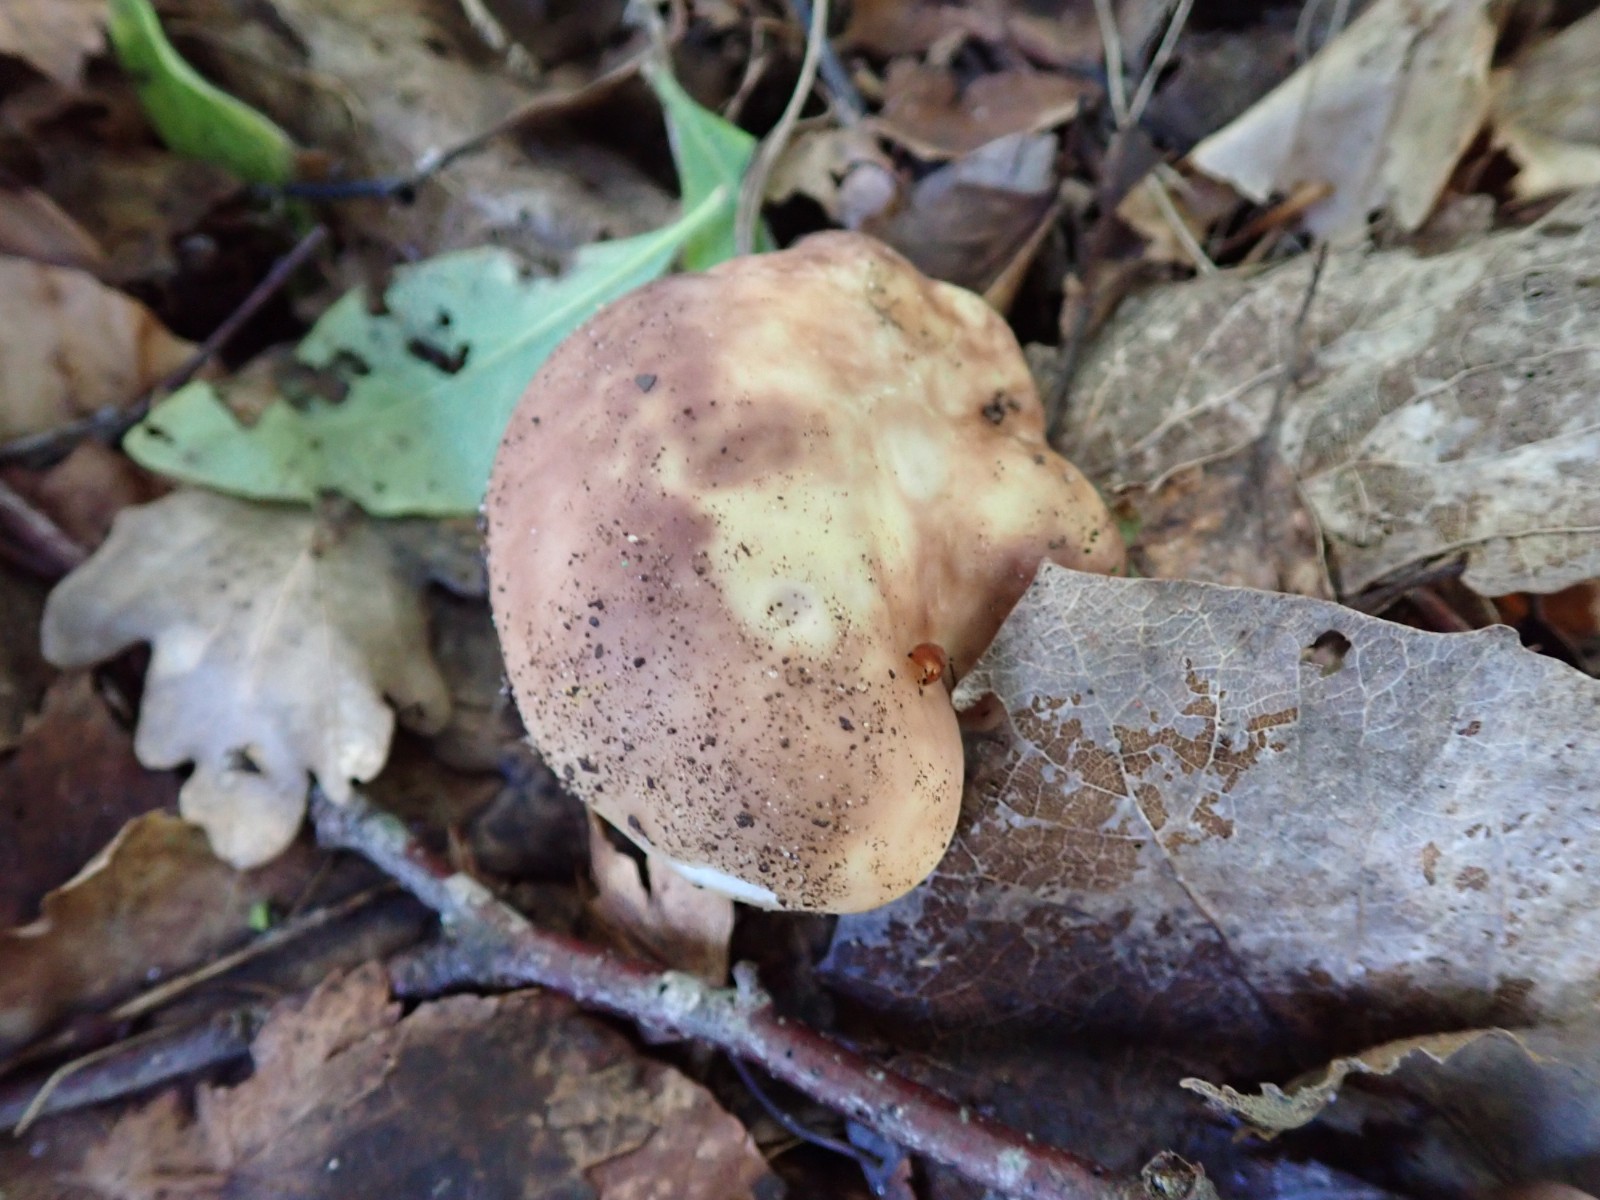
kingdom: Fungi
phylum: Basidiomycota
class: Agaricomycetes
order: Russulales
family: Russulaceae
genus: Russula
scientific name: Russula vesca
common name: spiselig skørhat
